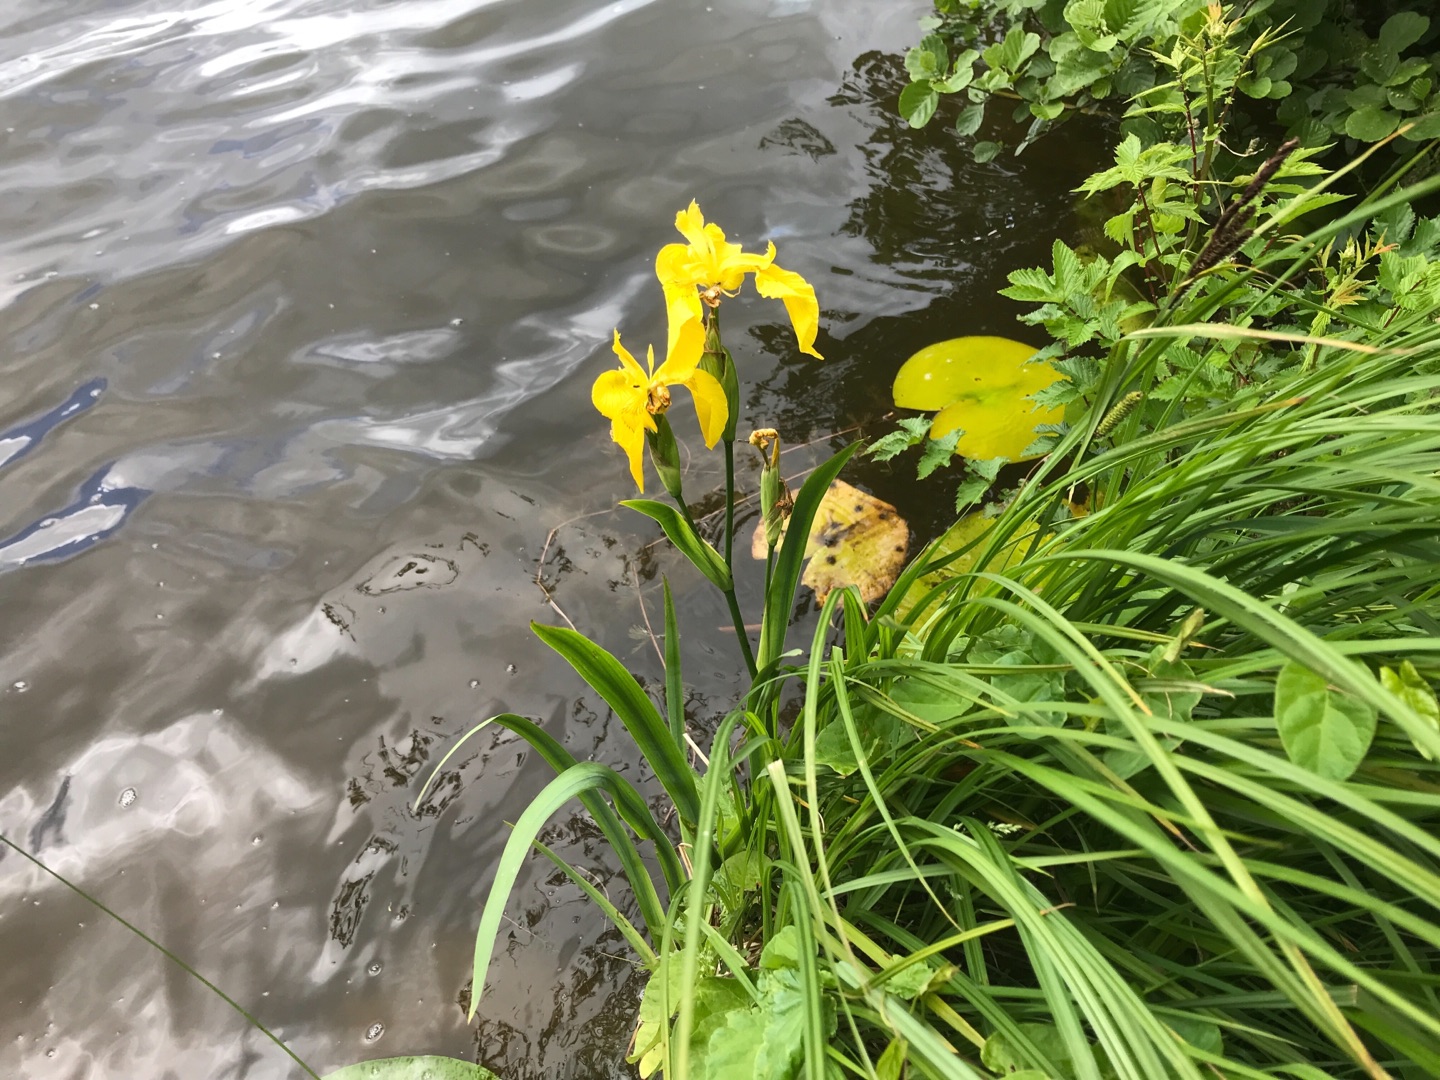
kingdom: Plantae
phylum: Tracheophyta
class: Liliopsida
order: Asparagales
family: Iridaceae
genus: Iris
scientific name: Iris pseudacorus
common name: Gul iris
